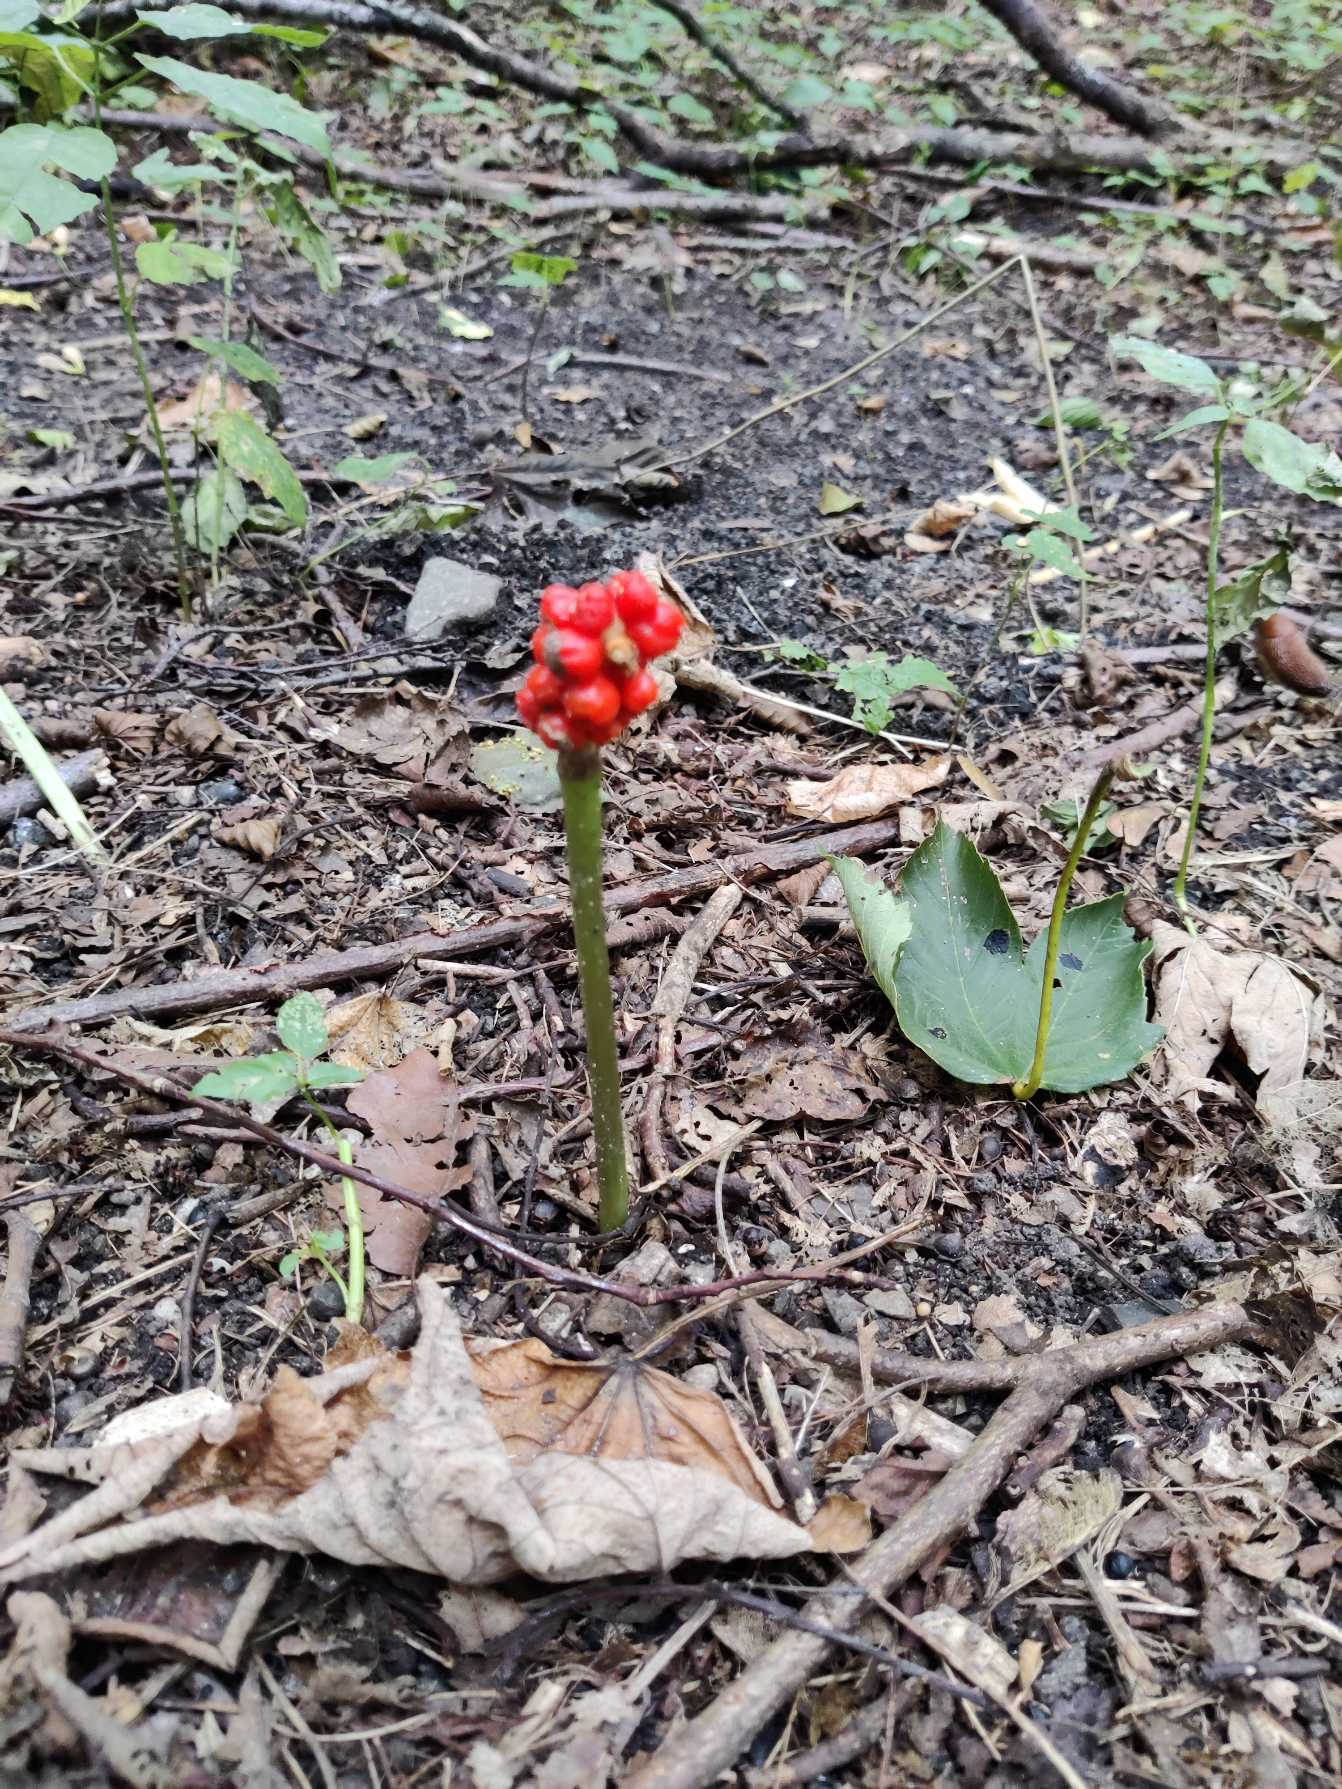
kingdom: Plantae
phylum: Tracheophyta
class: Liliopsida
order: Alismatales
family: Araceae
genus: Arum
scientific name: Arum
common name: Arumslægten
